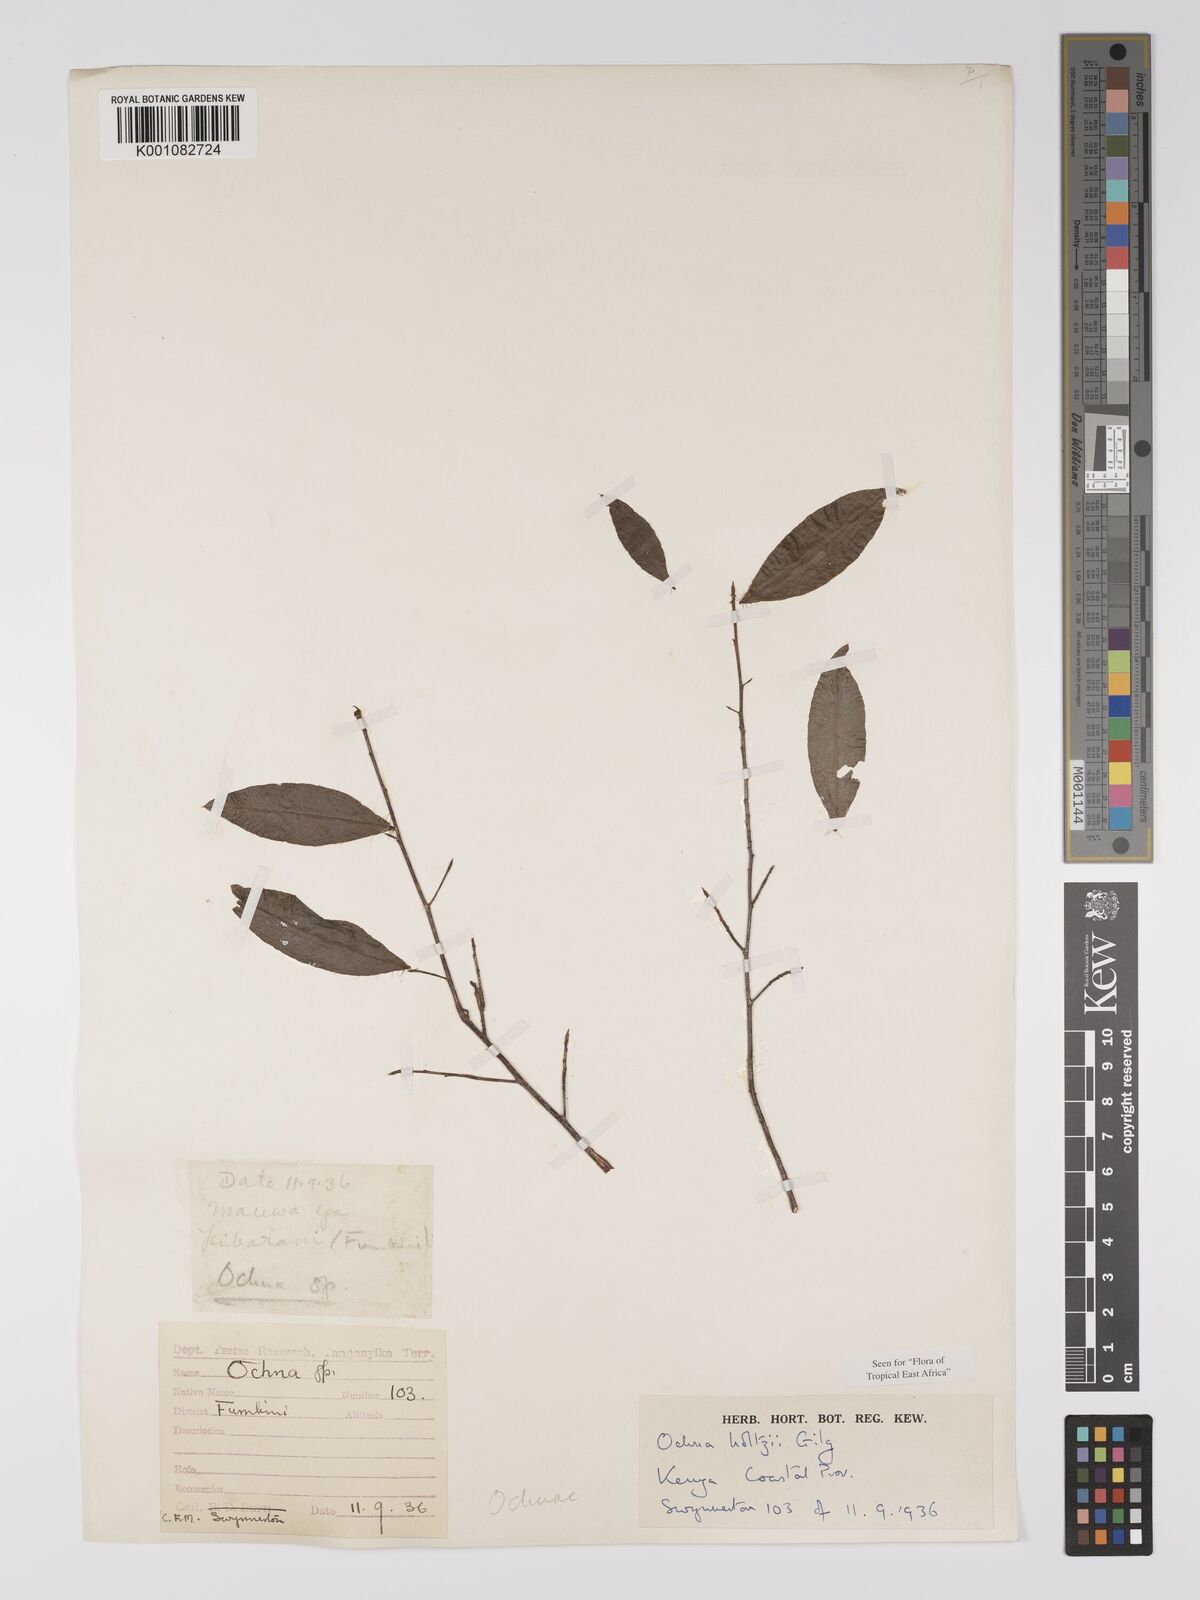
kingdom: Plantae
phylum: Tracheophyta
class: Magnoliopsida
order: Malpighiales
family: Ochnaceae
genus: Ochna
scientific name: Ochna holtzii
